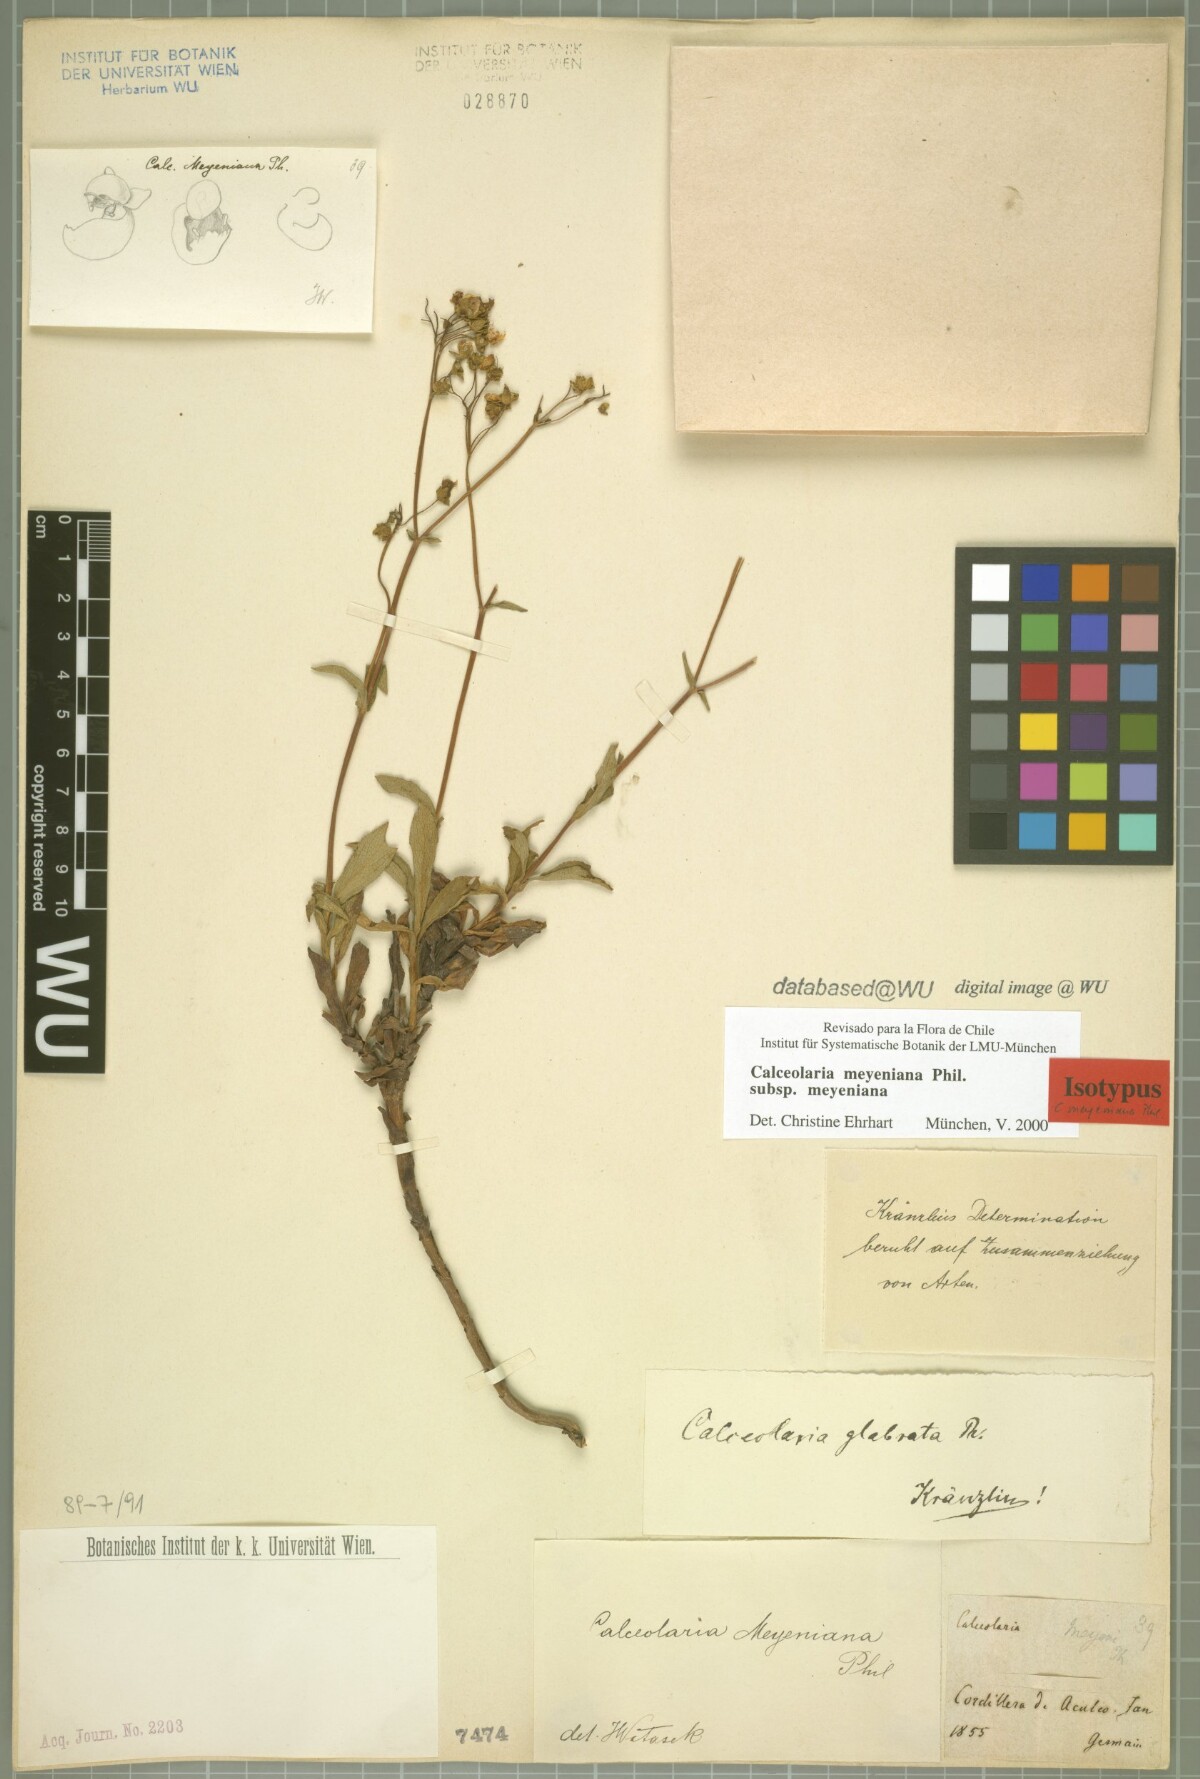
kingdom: Plantae
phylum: Tracheophyta
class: Magnoliopsida
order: Lamiales
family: Calceolariaceae
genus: Calceolaria
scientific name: Calceolaria meyeniana
